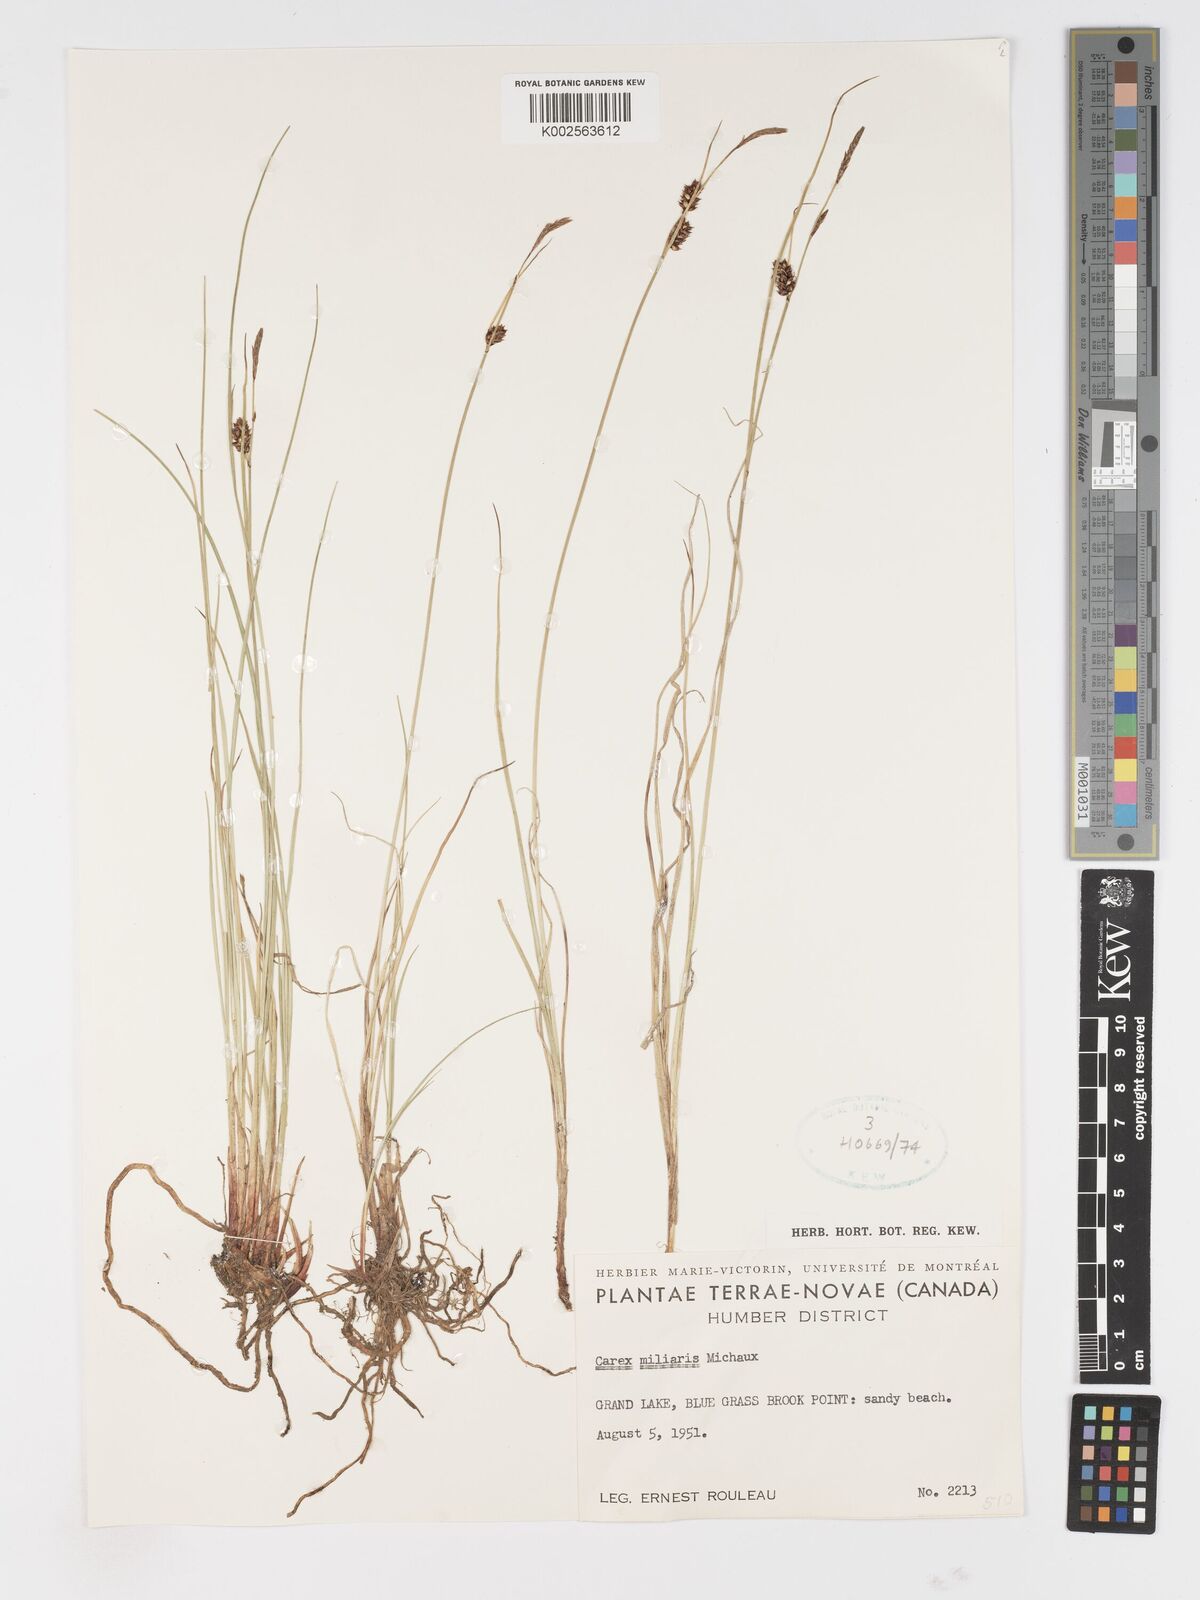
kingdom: Plantae
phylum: Tracheophyta
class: Liliopsida
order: Poales
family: Cyperaceae
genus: Carex
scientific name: Carex miliaris
